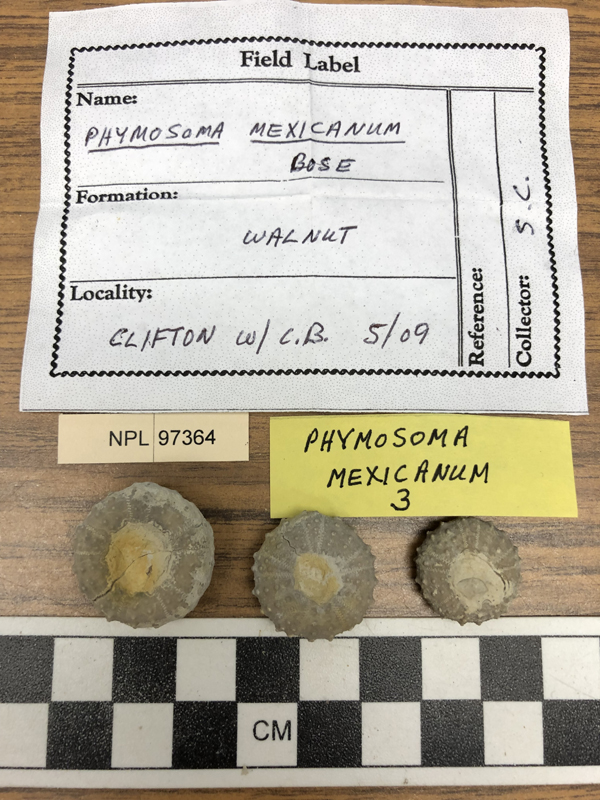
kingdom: Animalia
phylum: Echinodermata
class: Echinoidea
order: Phymosomatoida
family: Phymosomatidae
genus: Phymosoma
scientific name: Phymosoma mexicanum
